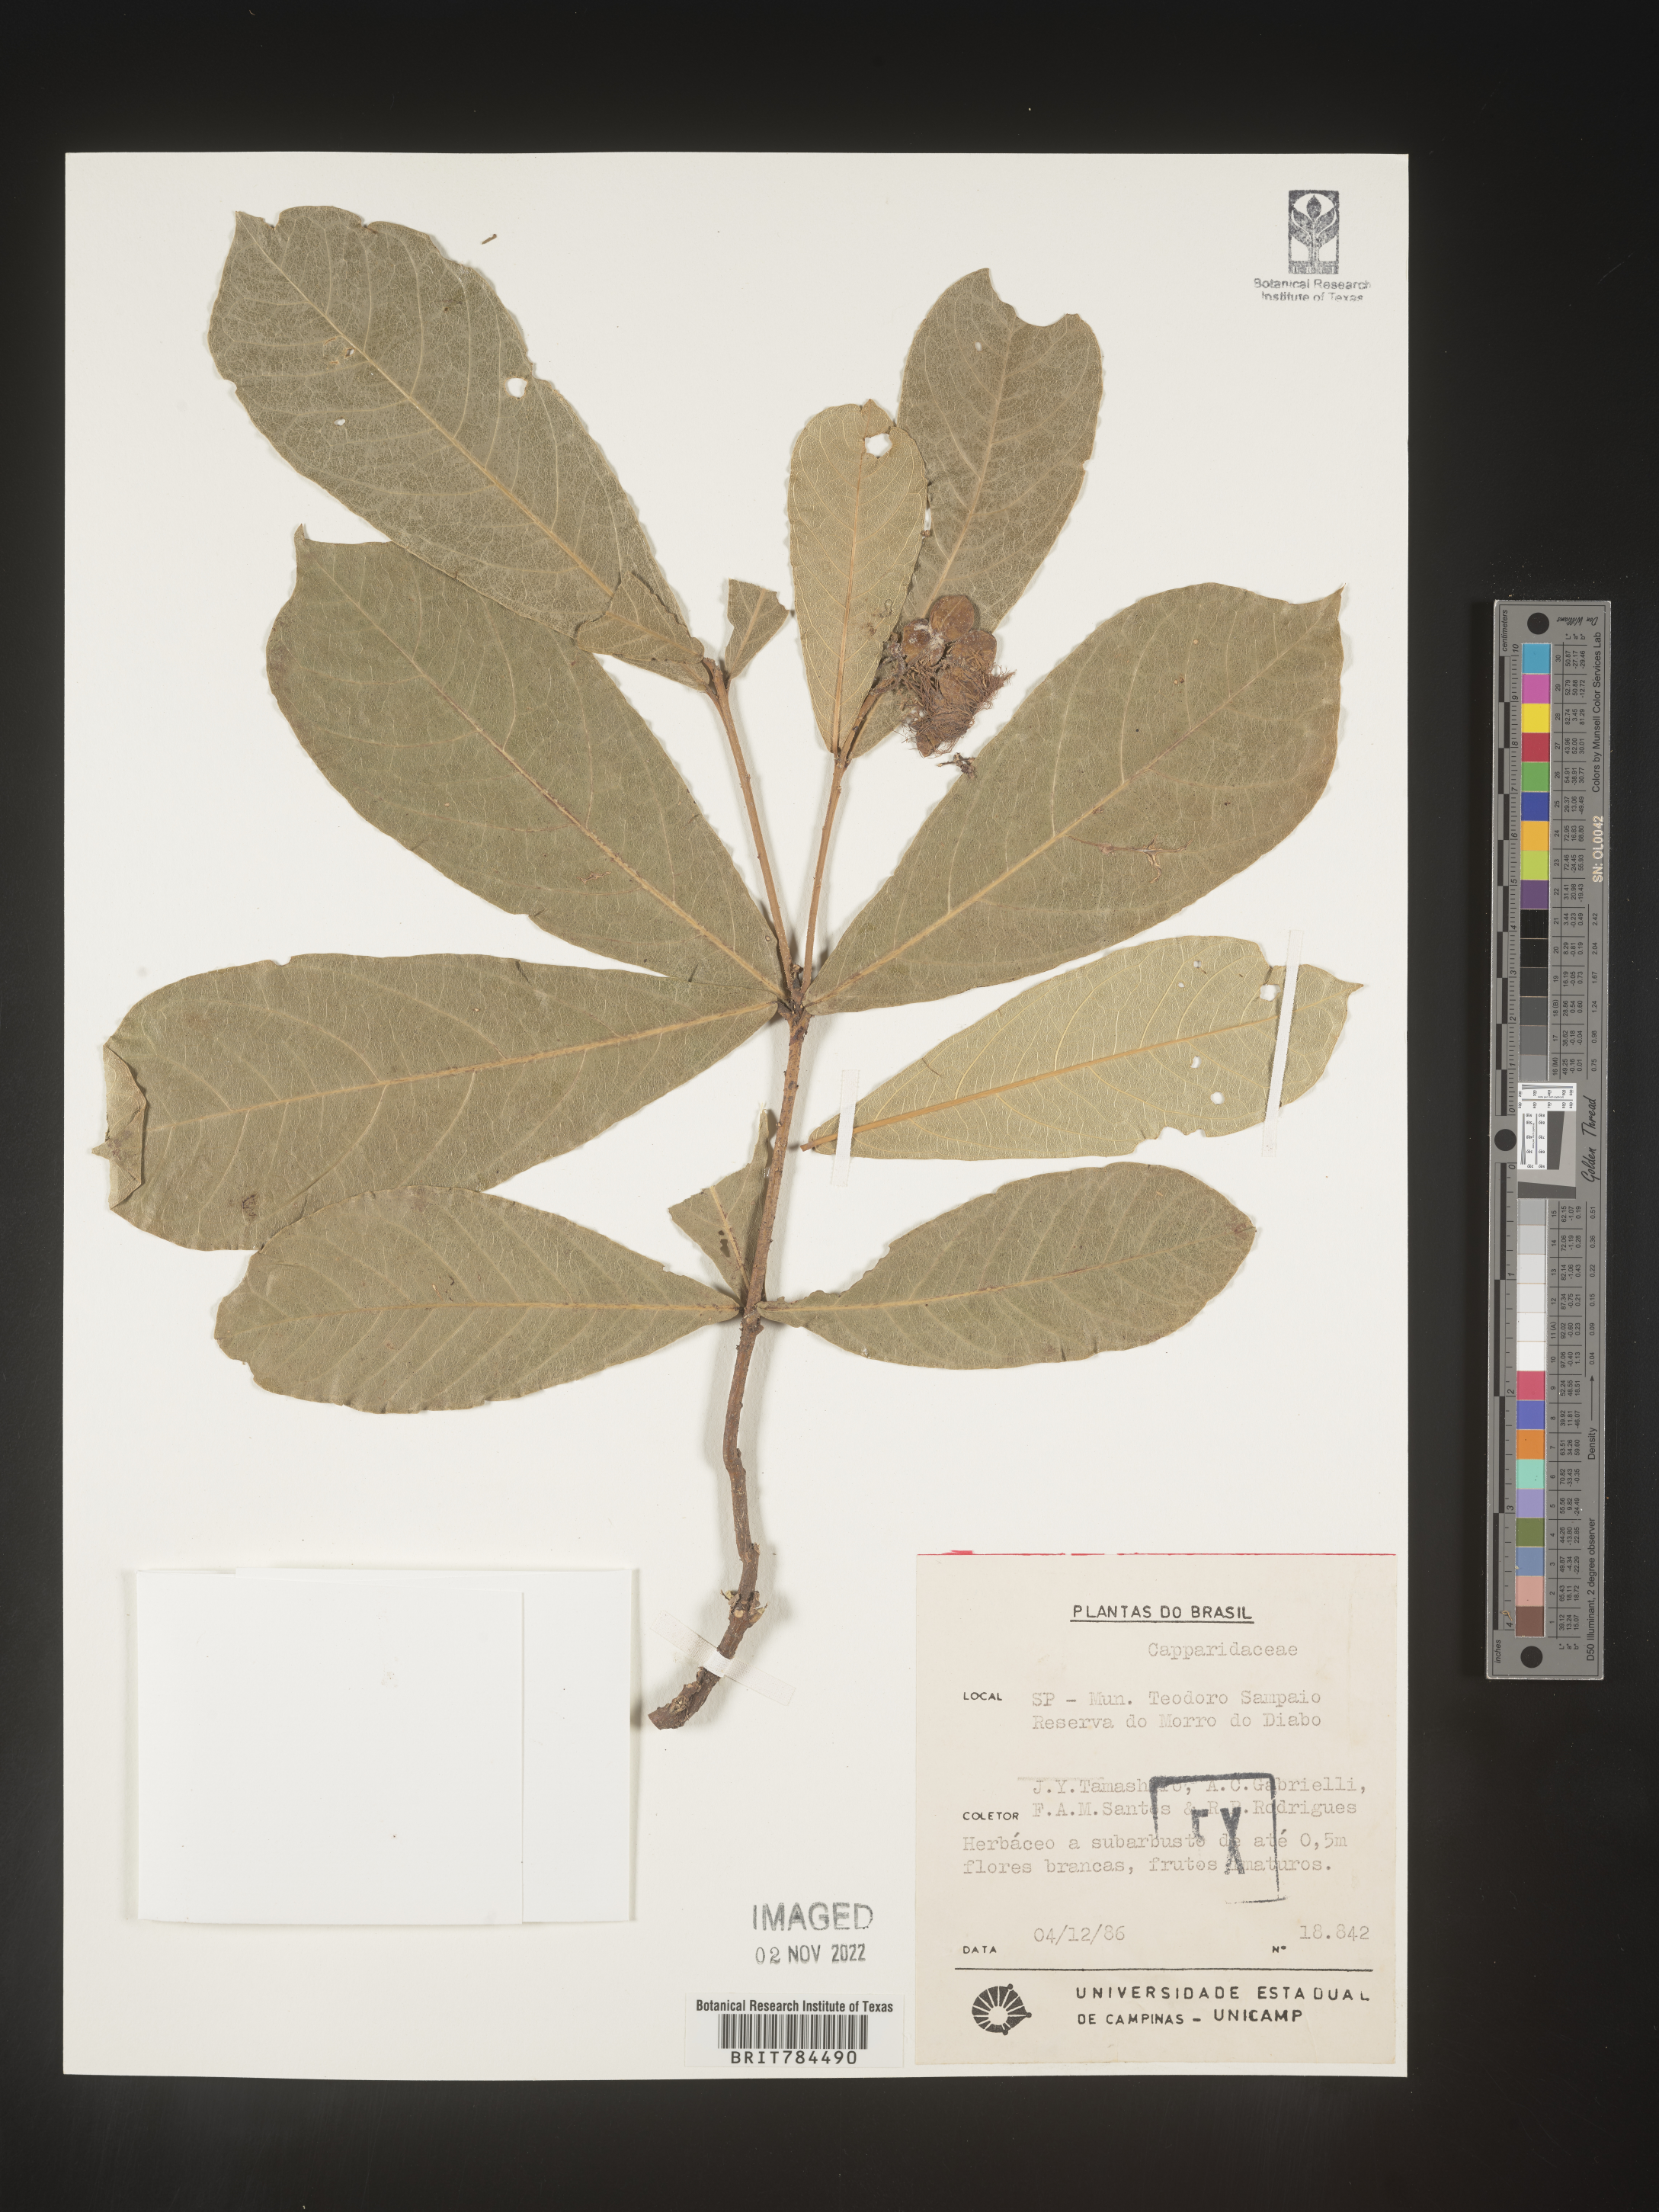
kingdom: Plantae
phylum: Tracheophyta
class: Magnoliopsida
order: Brassicales
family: Capparaceae
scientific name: Capparaceae
